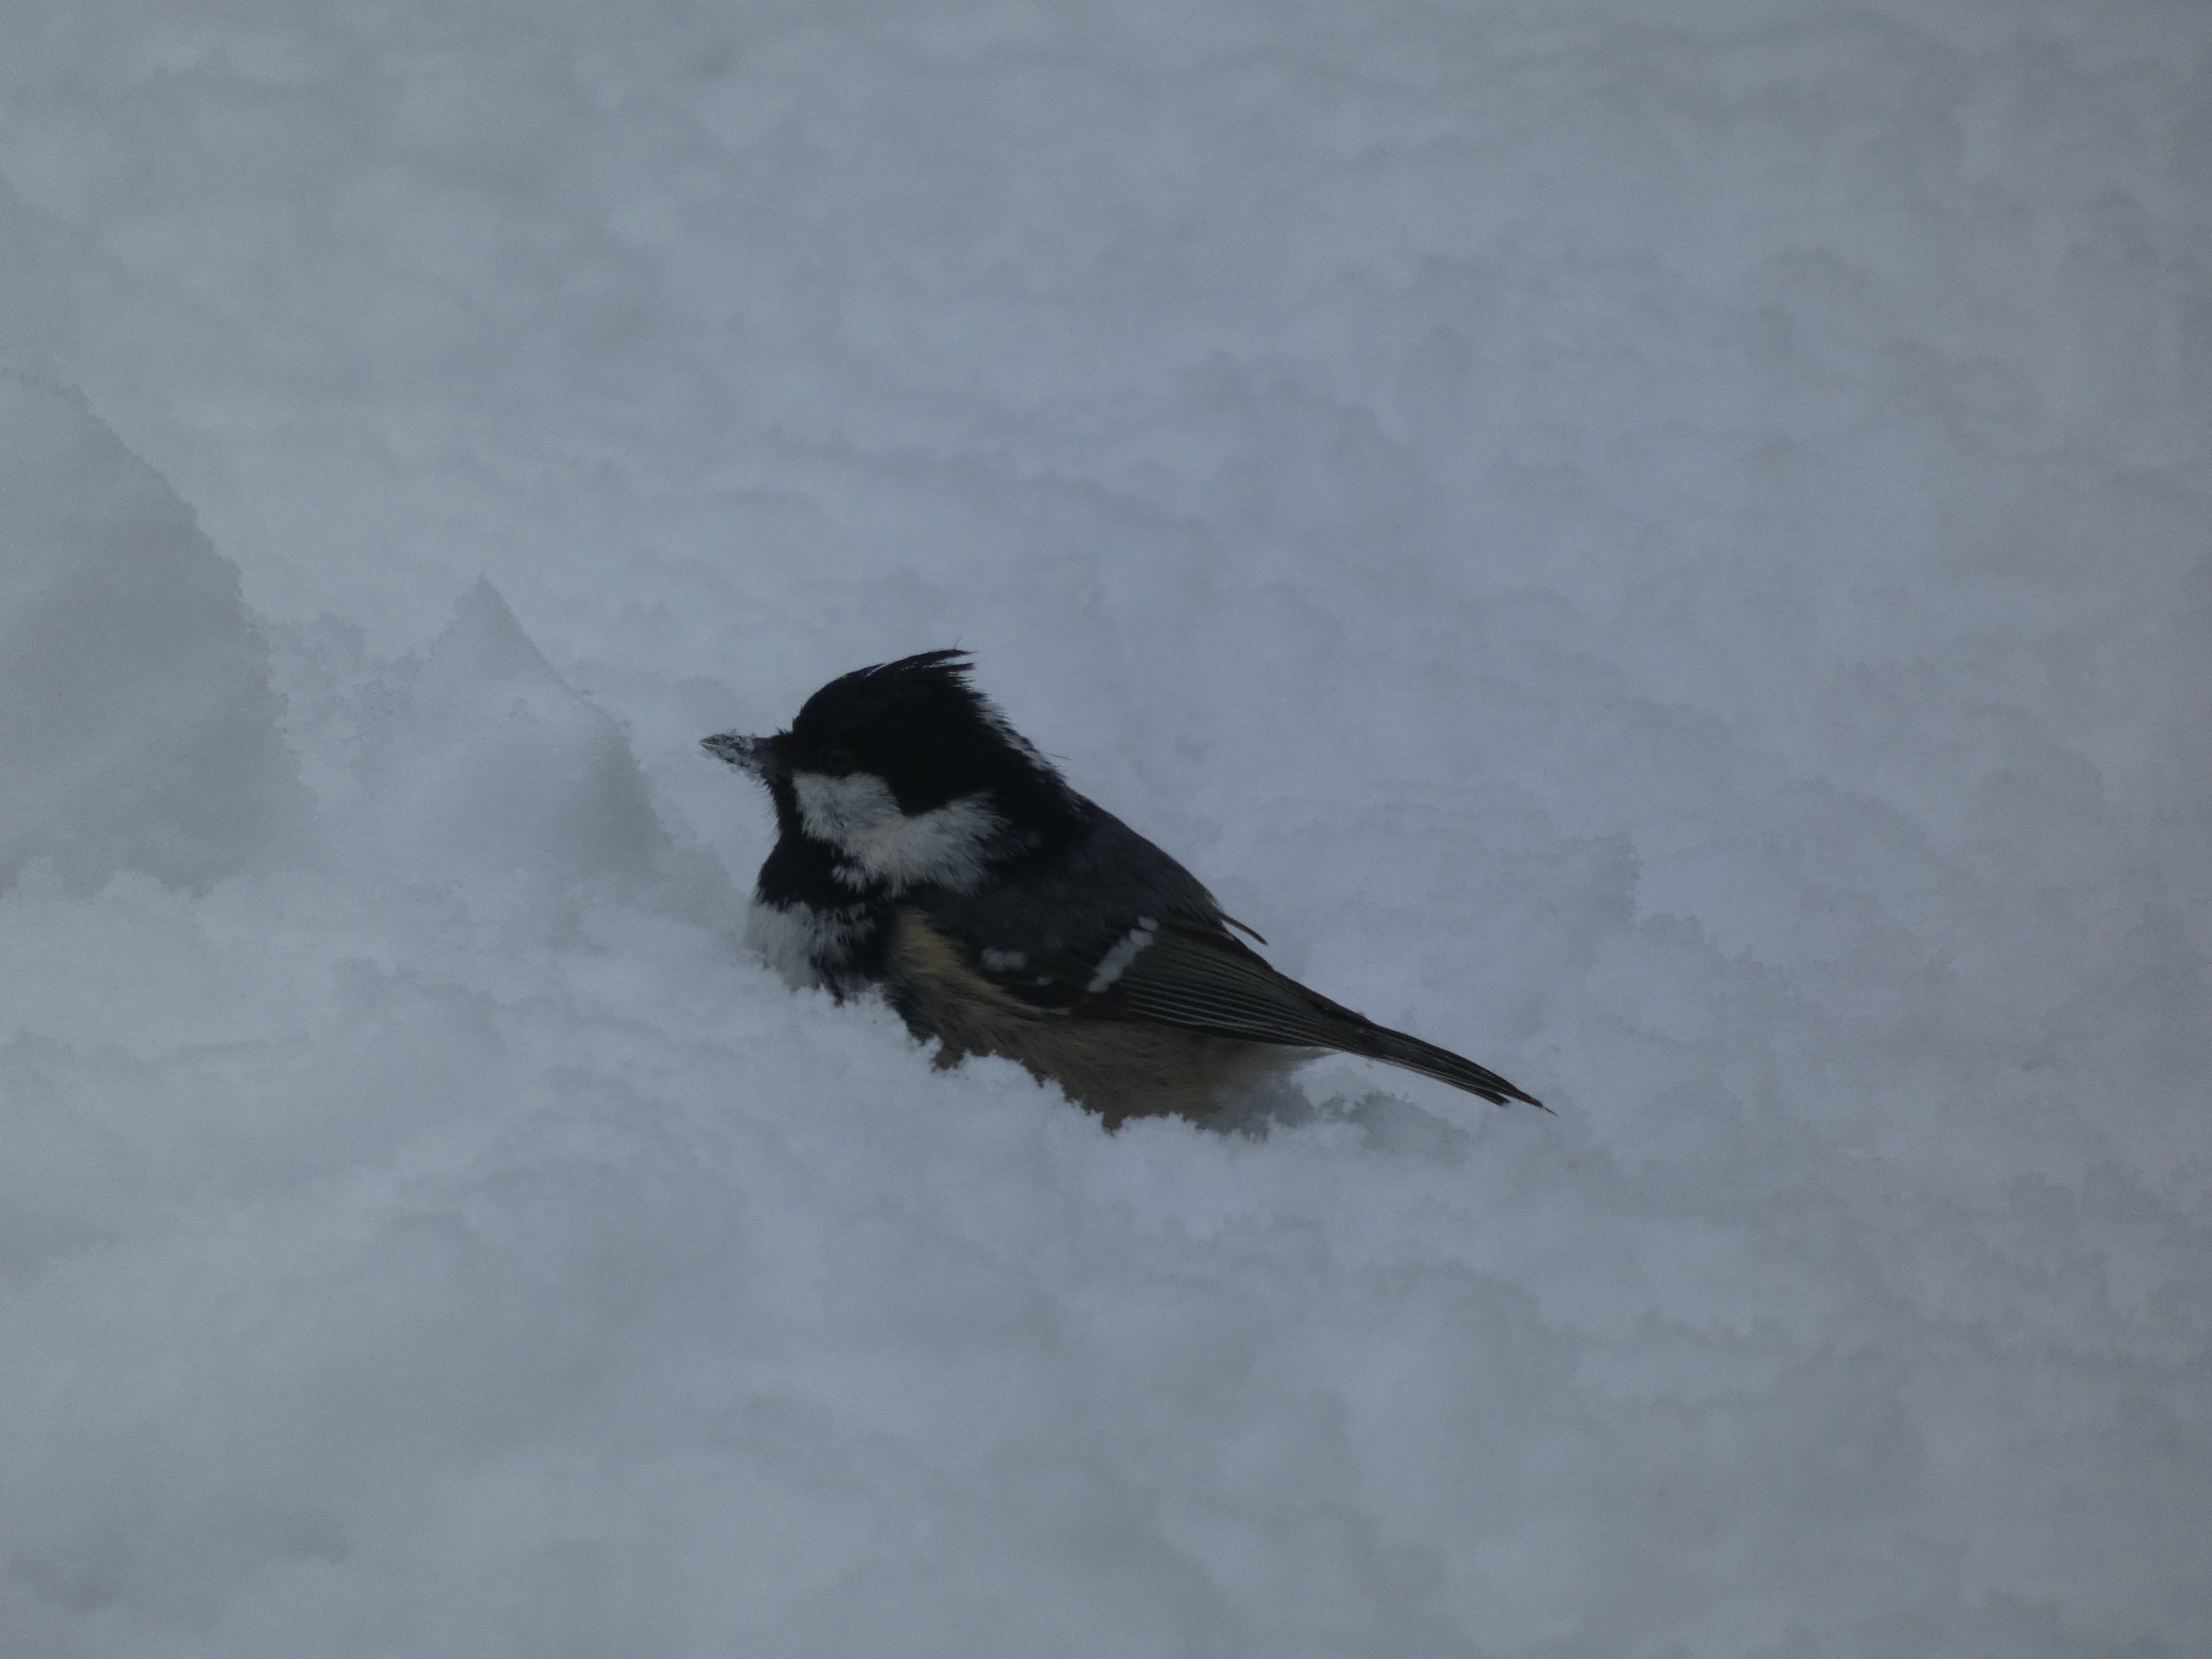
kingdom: Animalia
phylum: Chordata
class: Aves
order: Passeriformes
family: Paridae
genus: Periparus
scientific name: Periparus ater
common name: Sortmejse
